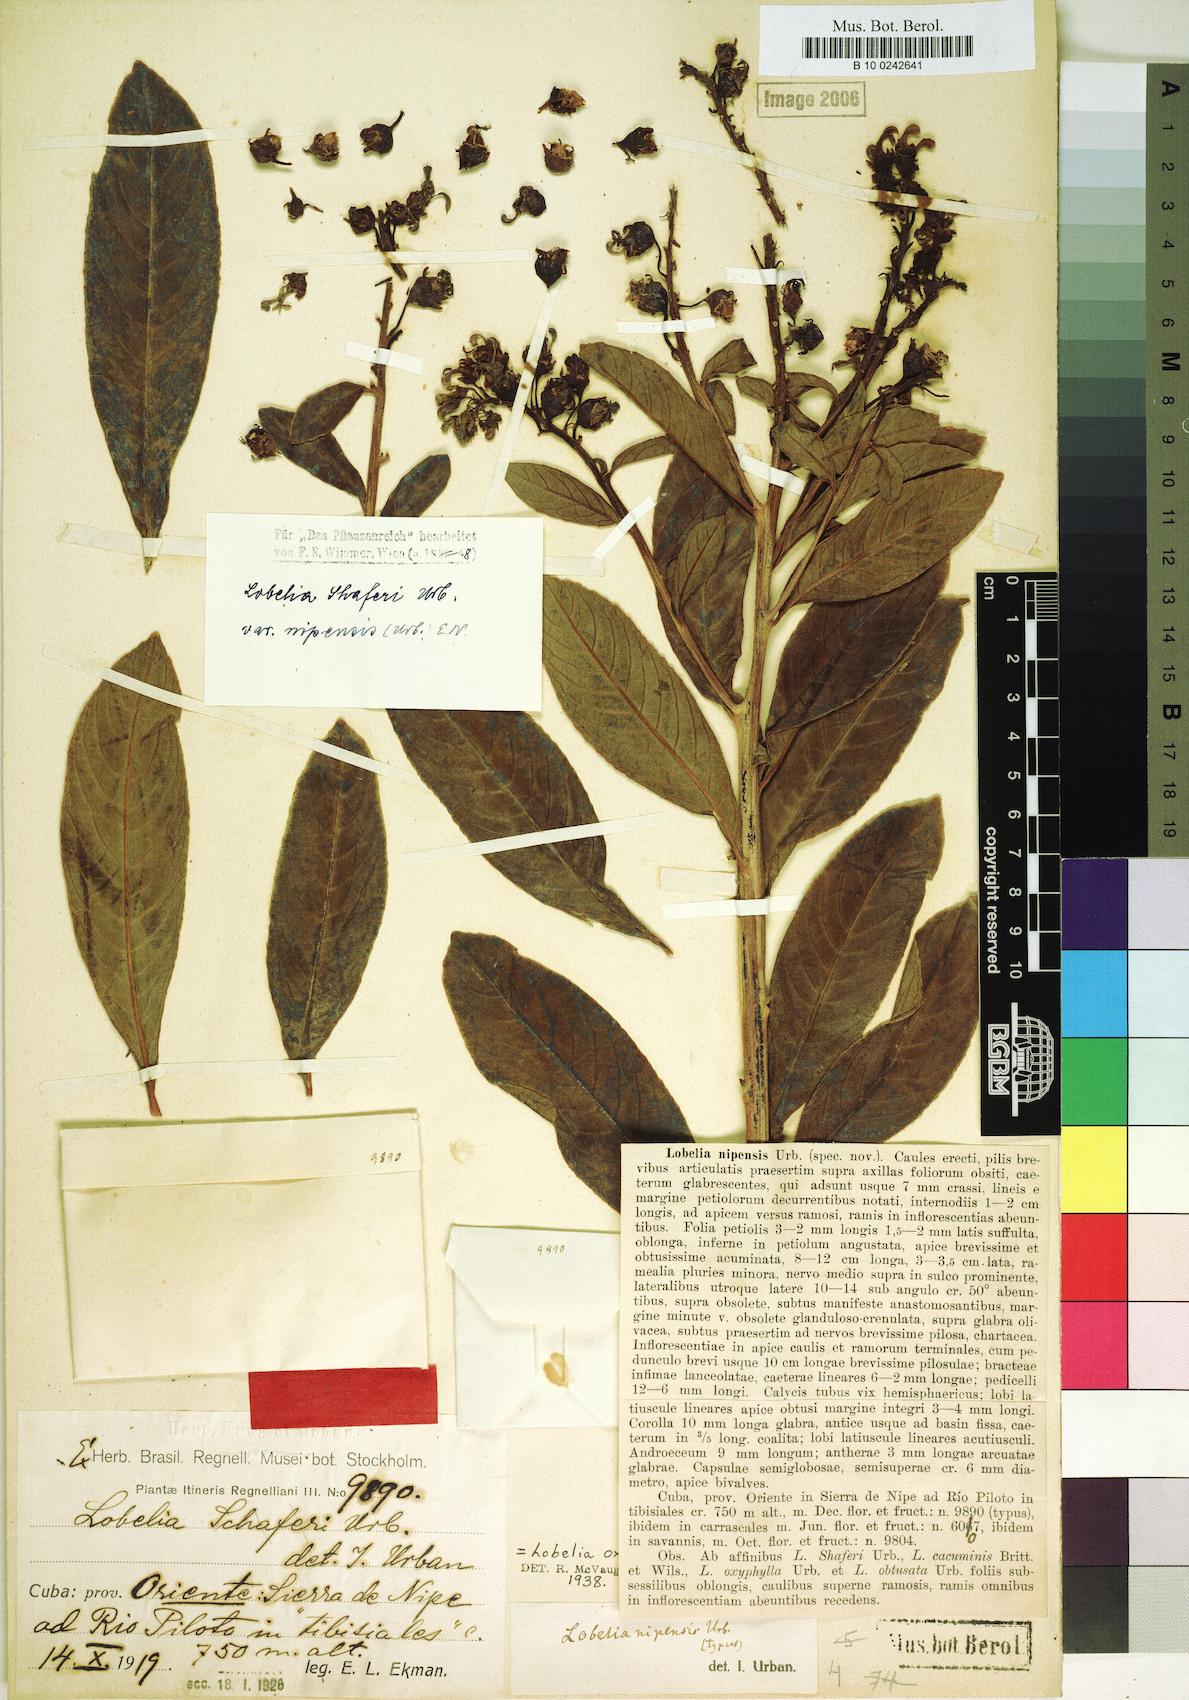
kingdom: Plantae
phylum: Tracheophyta
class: Magnoliopsida
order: Asterales
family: Campanulaceae
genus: Lobelia
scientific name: Lobelia shaferi
